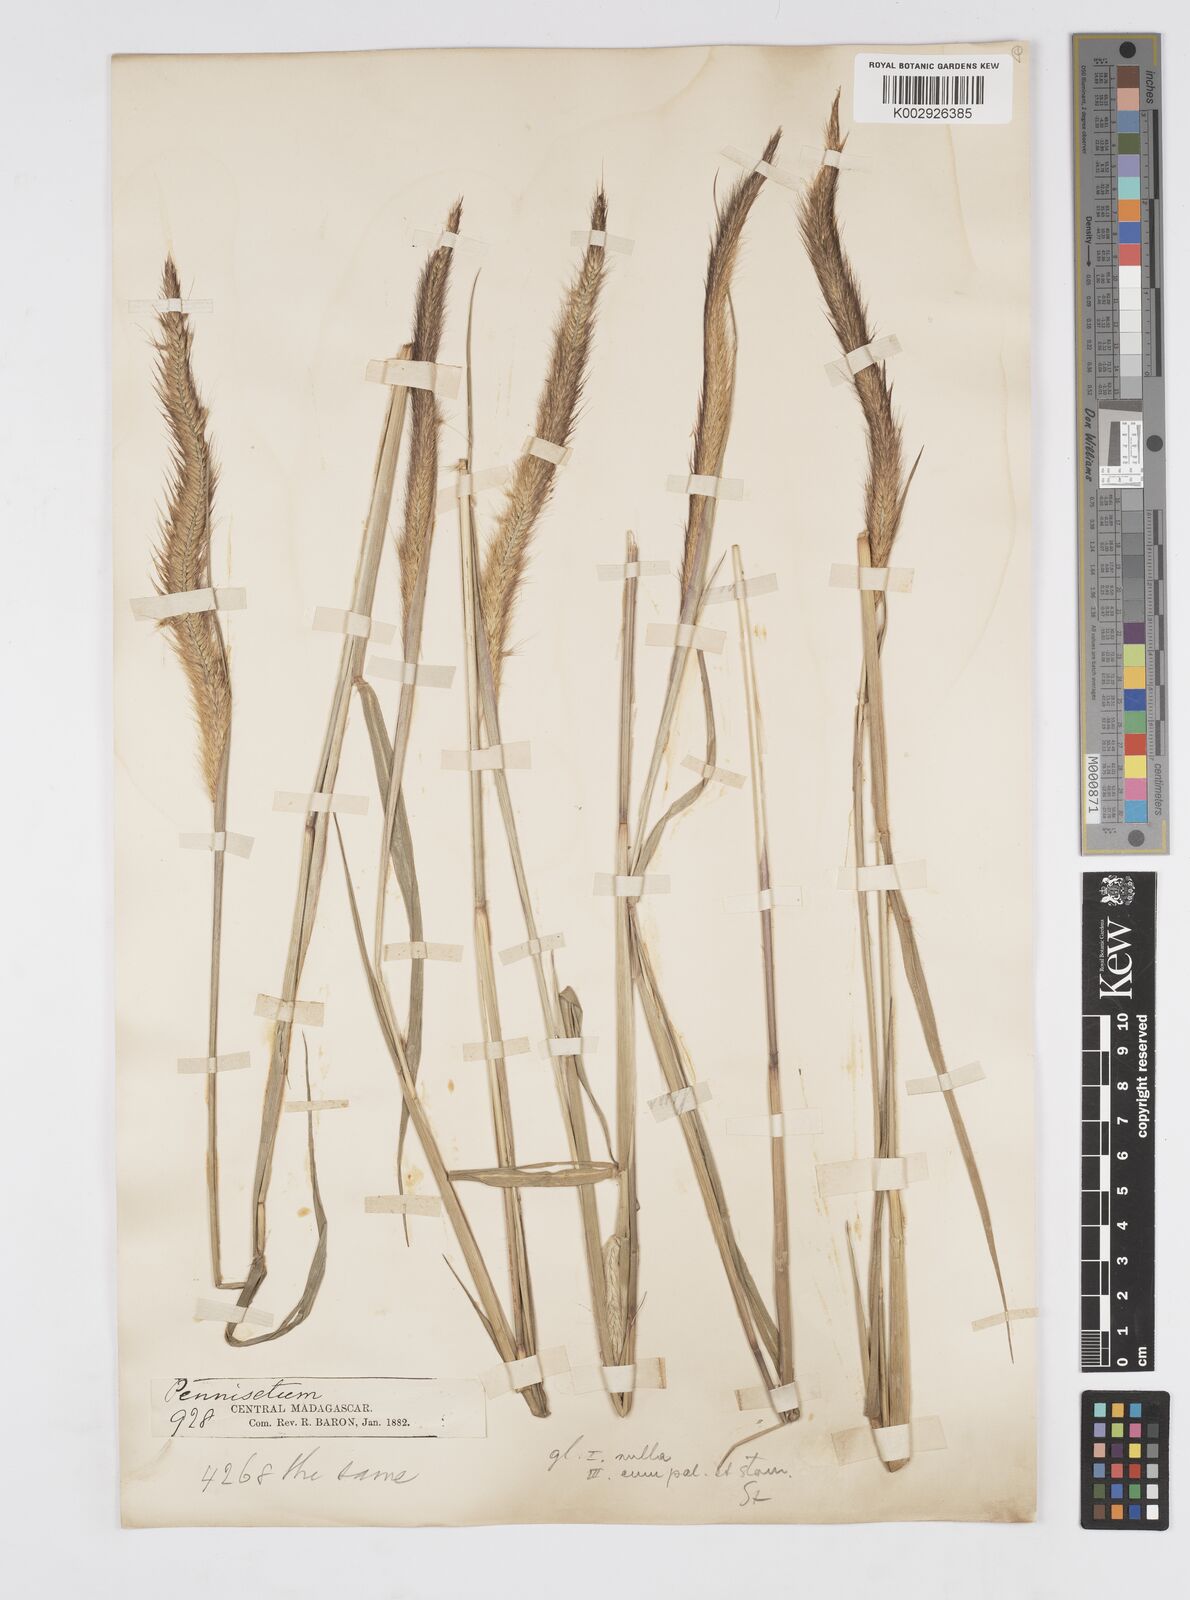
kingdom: Plantae
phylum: Tracheophyta
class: Liliopsida
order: Poales
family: Poaceae
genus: Setaria
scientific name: Setaria parviflora
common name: Knotroot bristle-grass
